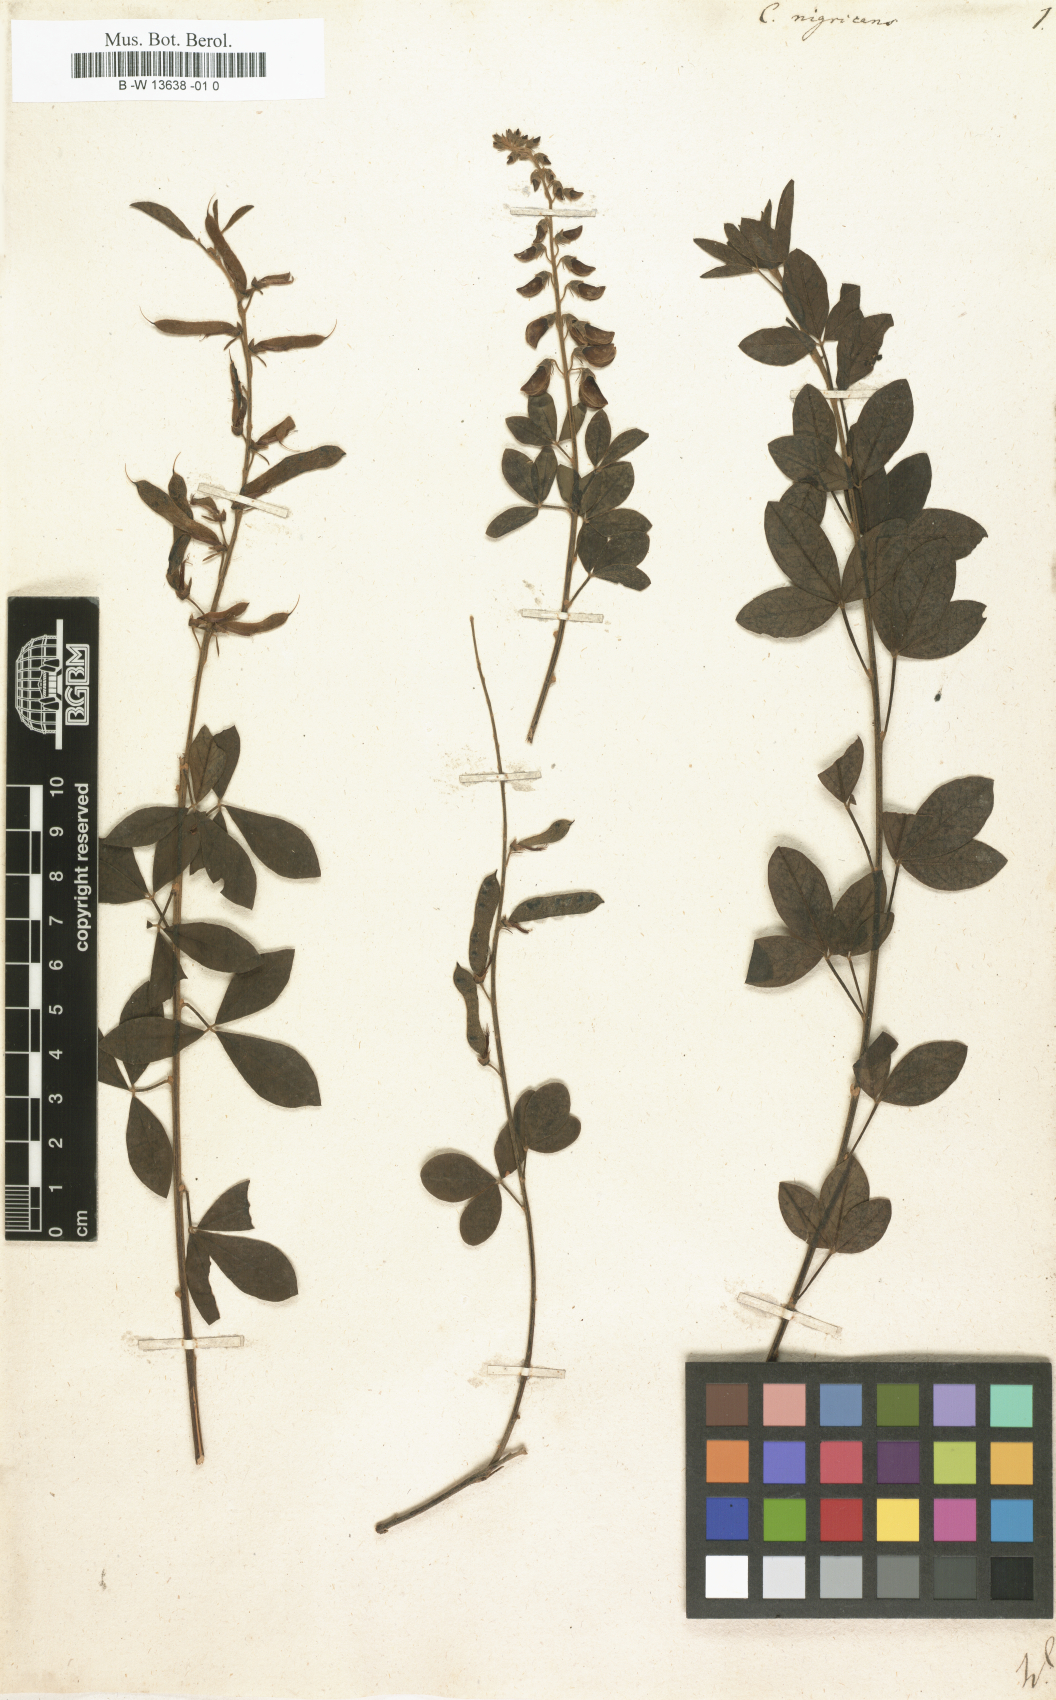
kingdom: Plantae
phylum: Tracheophyta
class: Magnoliopsida
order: Fabales
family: Fabaceae
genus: Cytisus
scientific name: Cytisus nigricans
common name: Black broom
